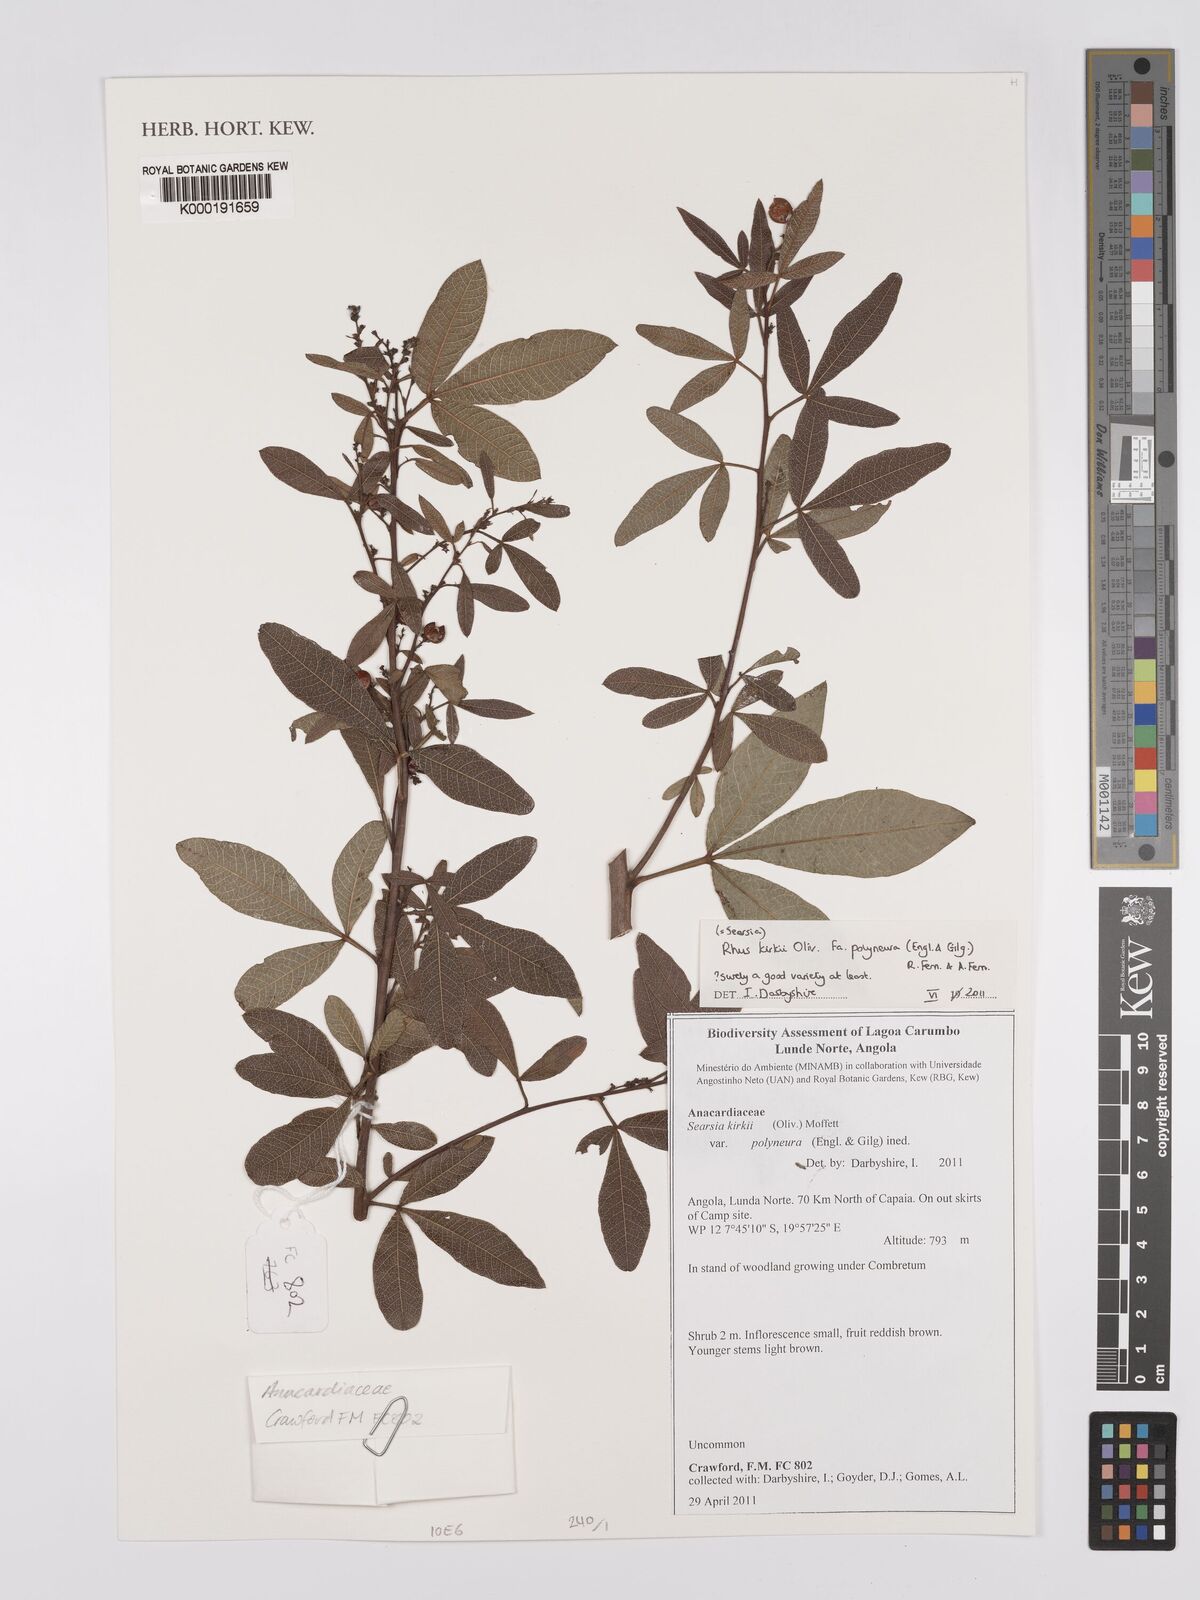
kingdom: Plantae
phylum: Tracheophyta
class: Magnoliopsida
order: Sapindales
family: Anacardiaceae
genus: Searsia
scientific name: Searsia kirkii
